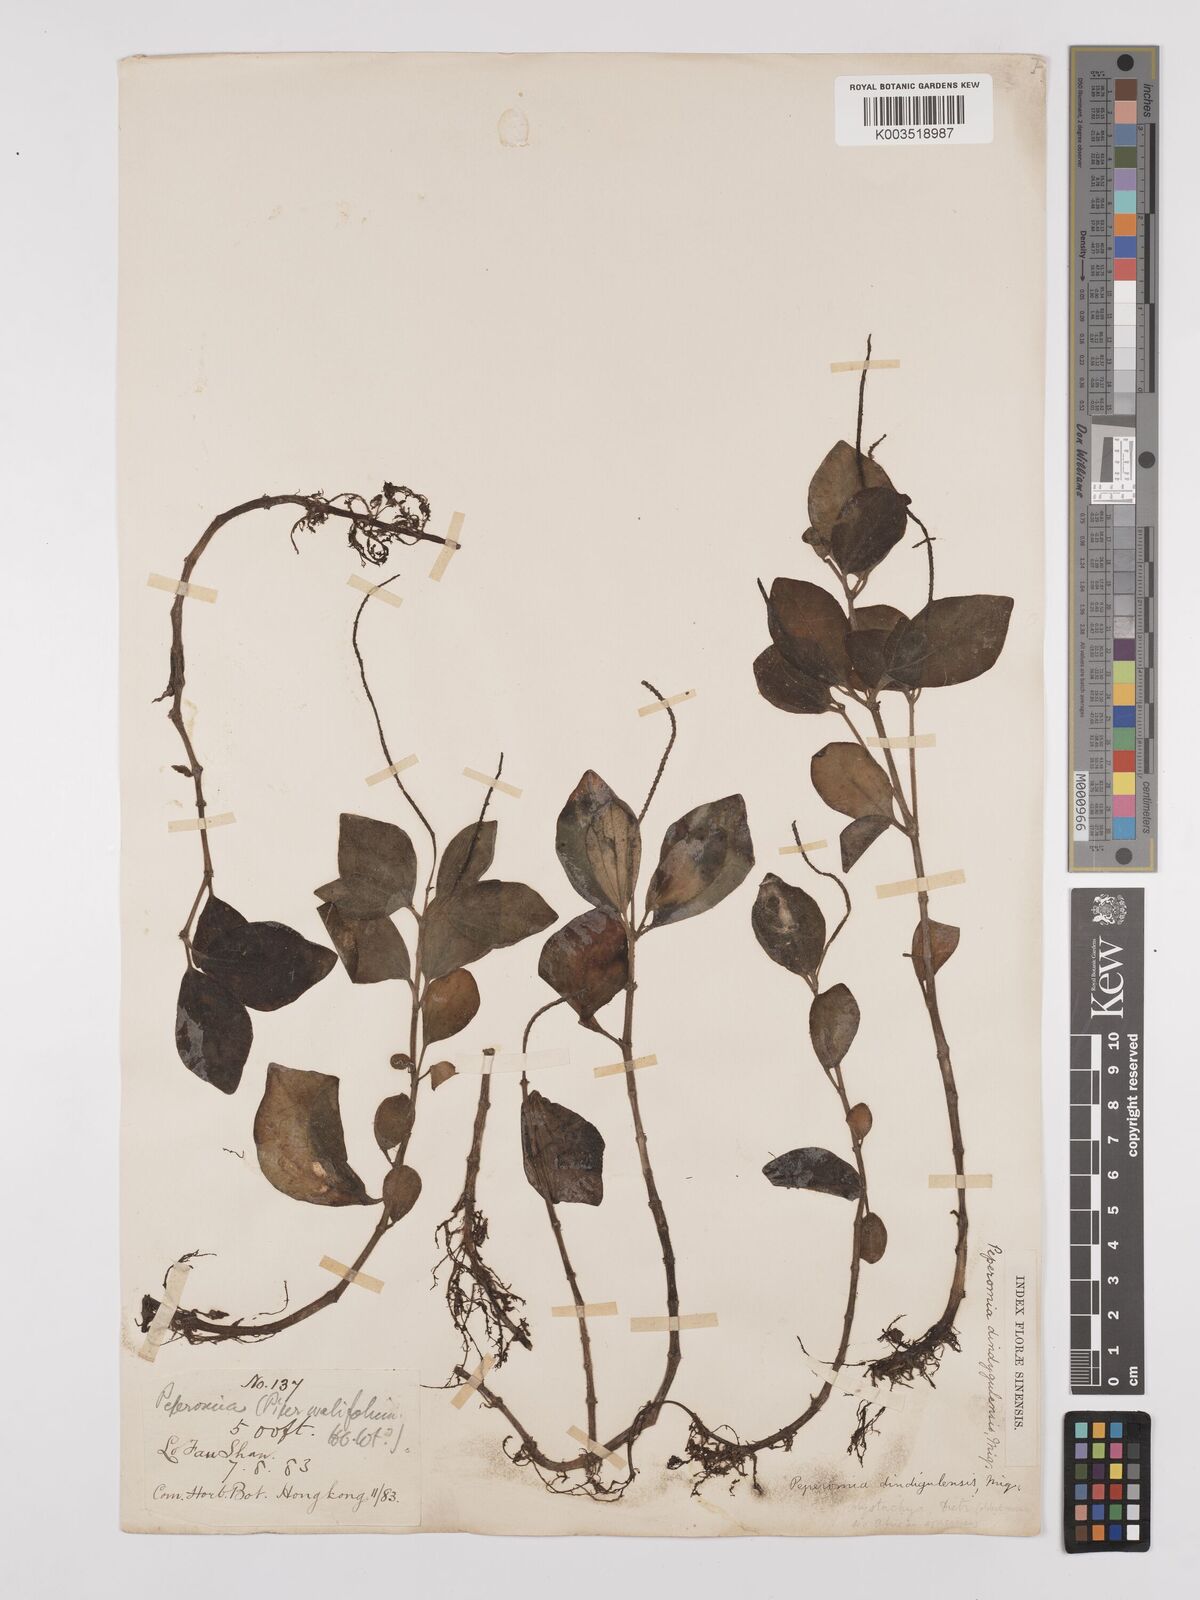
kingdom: Plantae
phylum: Tracheophyta
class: Magnoliopsida
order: Piperales
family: Piperaceae
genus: Peperomia
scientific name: Peperomia leptostachya
